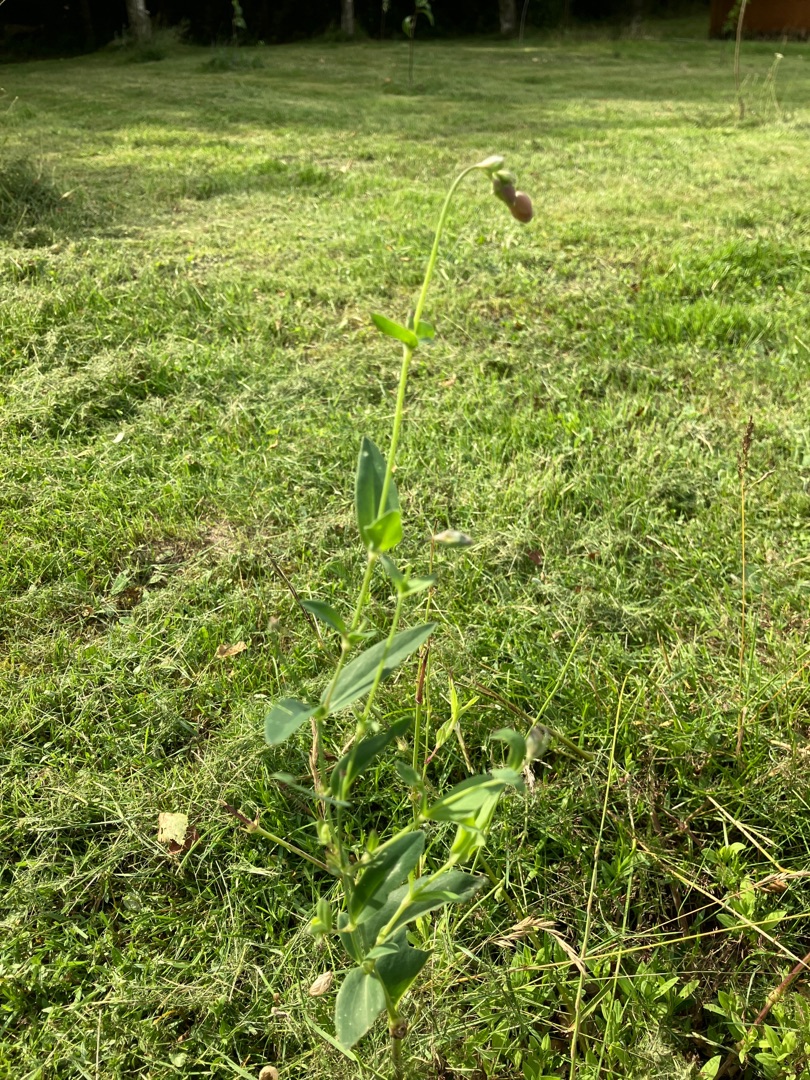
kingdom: Plantae
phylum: Tracheophyta
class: Magnoliopsida
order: Caryophyllales
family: Caryophyllaceae
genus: Silene
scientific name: Silene vulgaris
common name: Blæresmælde
